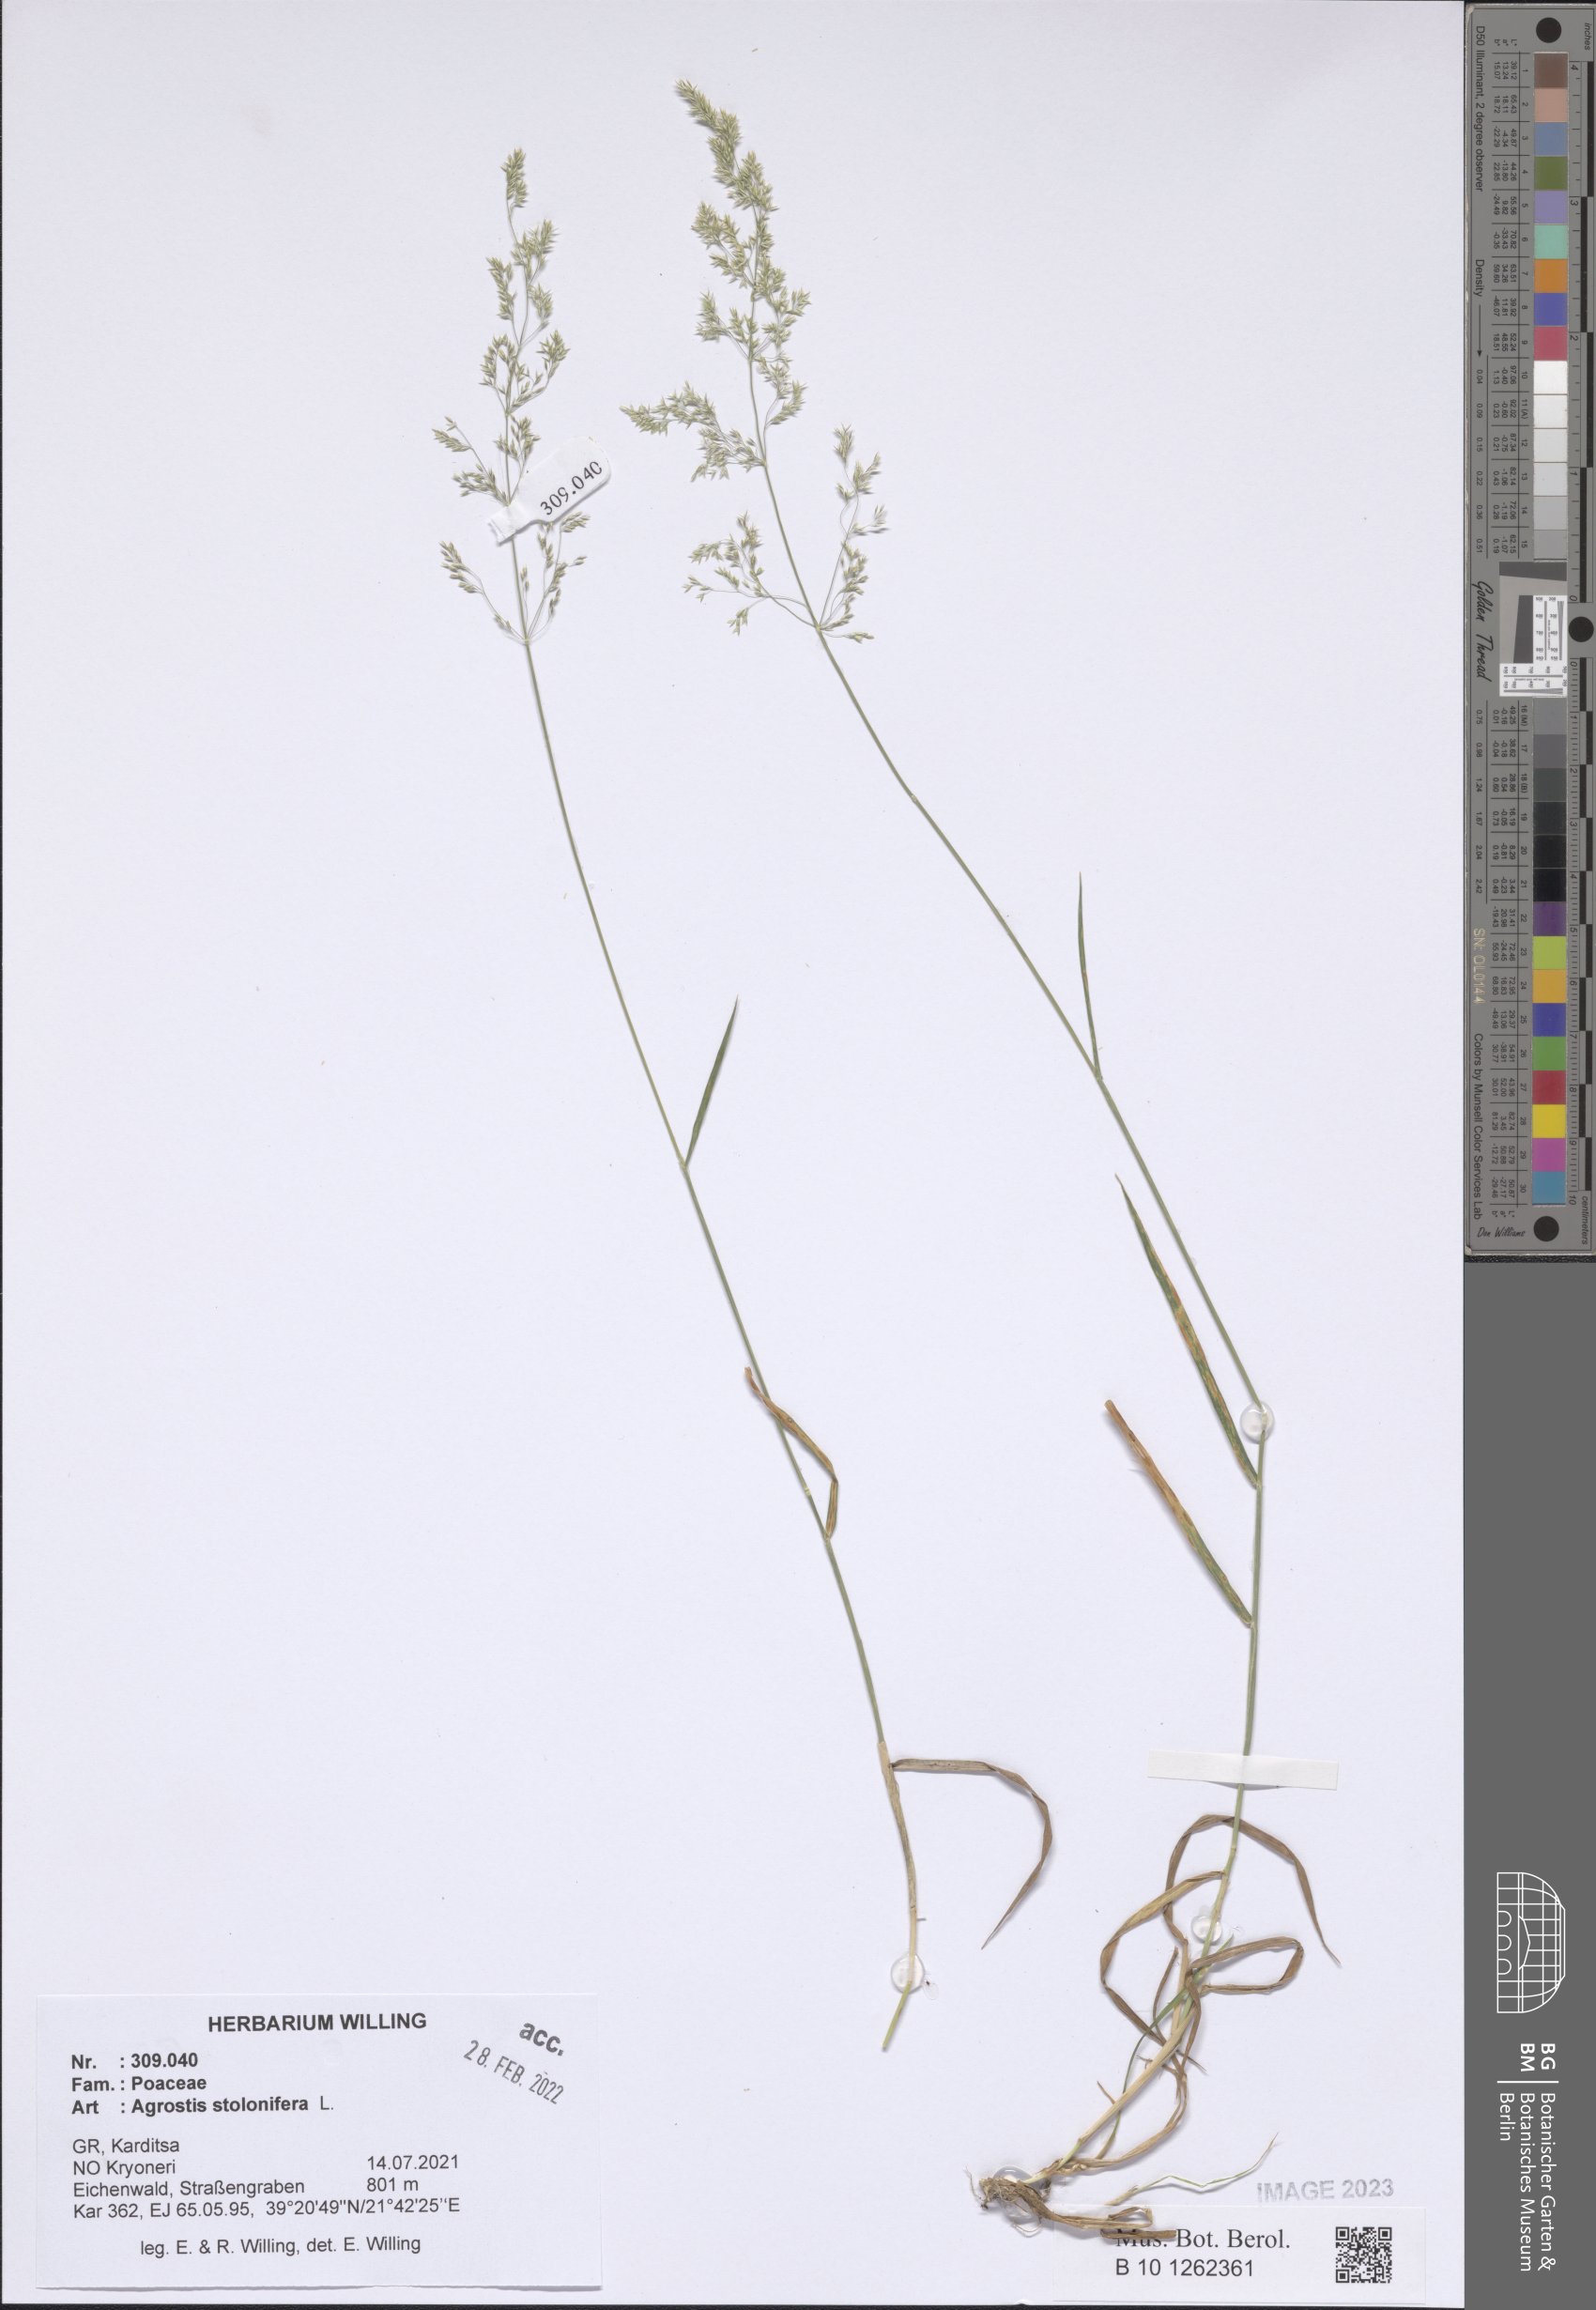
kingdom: Plantae
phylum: Tracheophyta
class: Liliopsida
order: Poales
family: Poaceae
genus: Agrostis
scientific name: Agrostis stolonifera
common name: Creeping bentgrass
